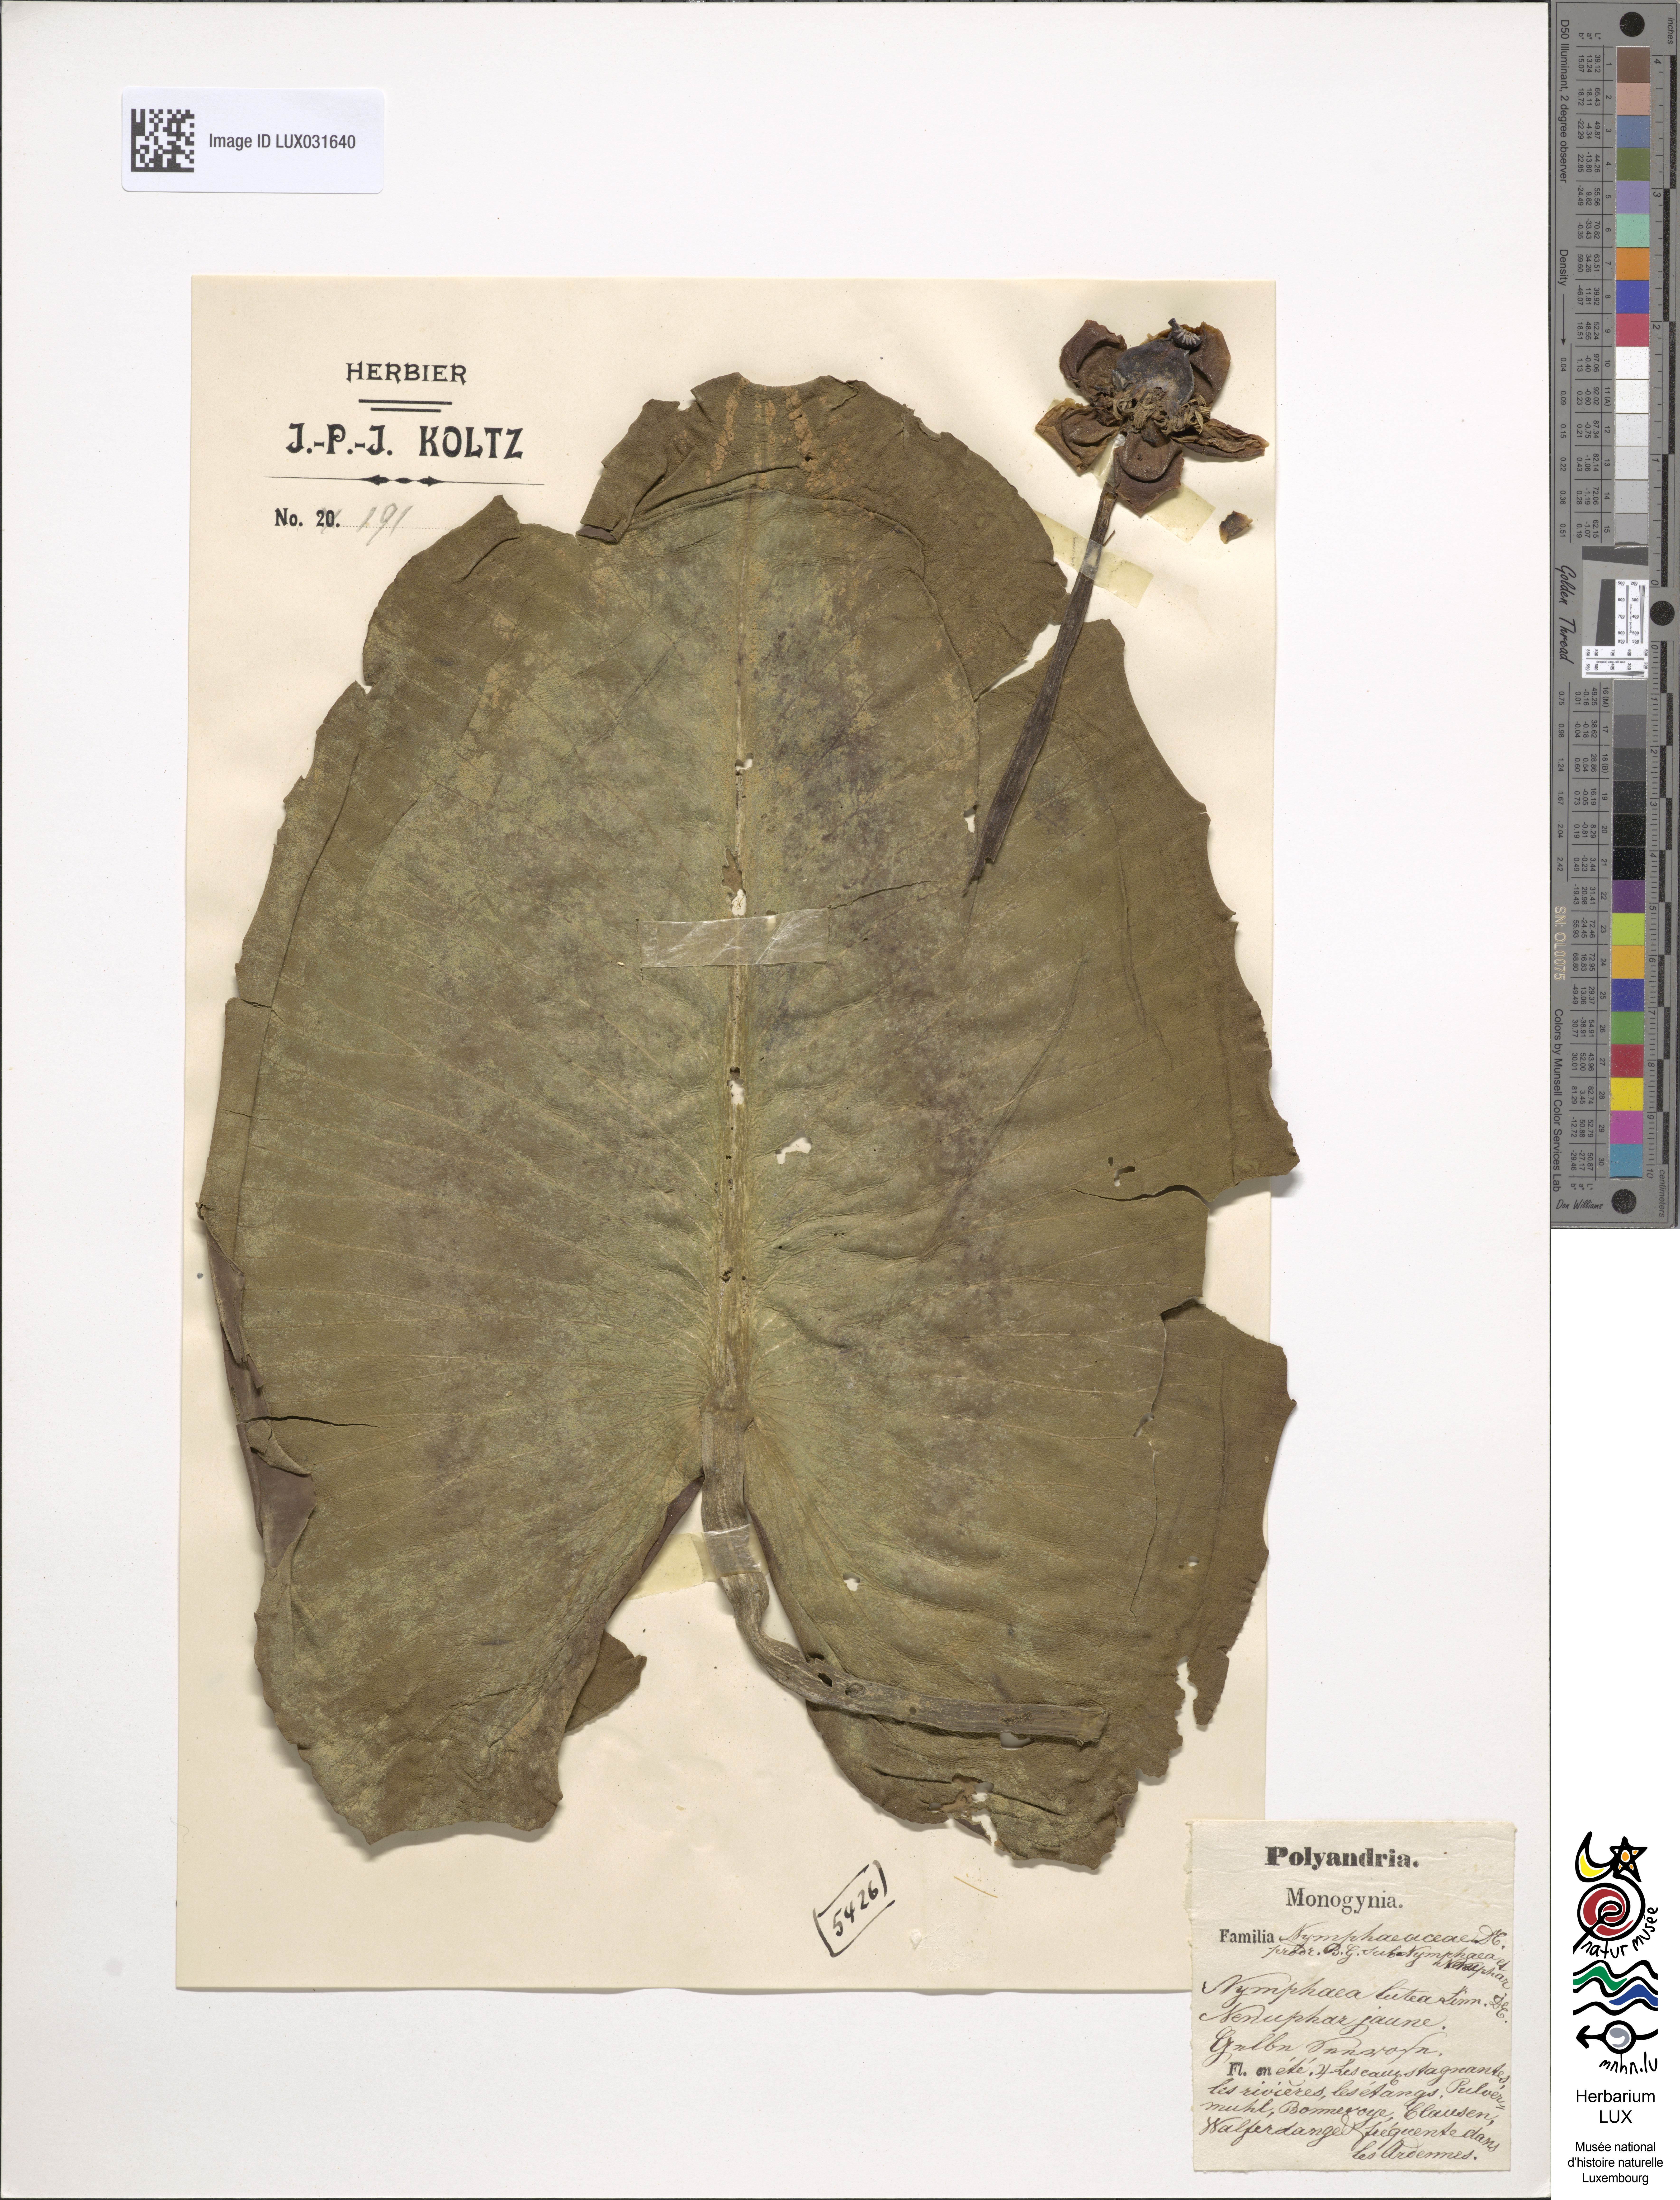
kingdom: Plantae
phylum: Tracheophyta
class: Magnoliopsida
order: Nymphaeales
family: Nymphaeaceae
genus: Nuphar
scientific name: Nuphar lutea
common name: Yellow water-lily
